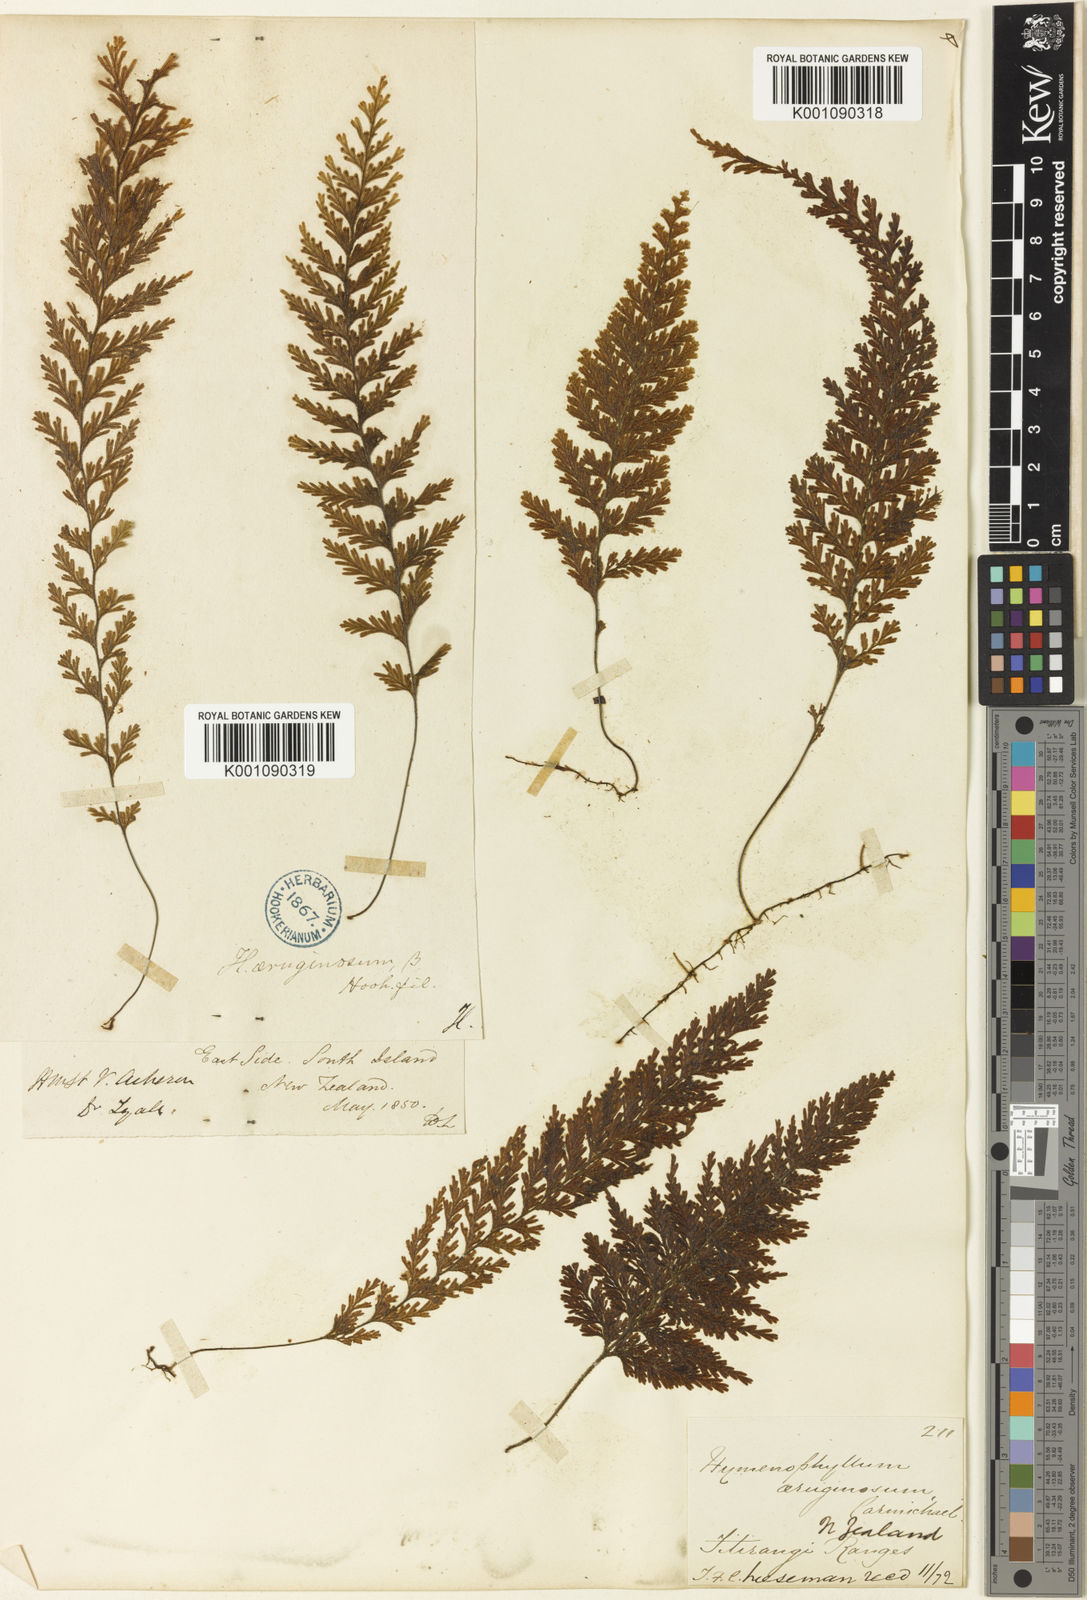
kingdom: Plantae
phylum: Tracheophyta
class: Polypodiopsida
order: Hymenophyllales
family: Hymenophyllaceae
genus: Hymenophyllum
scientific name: Hymenophyllum ferrugineum
